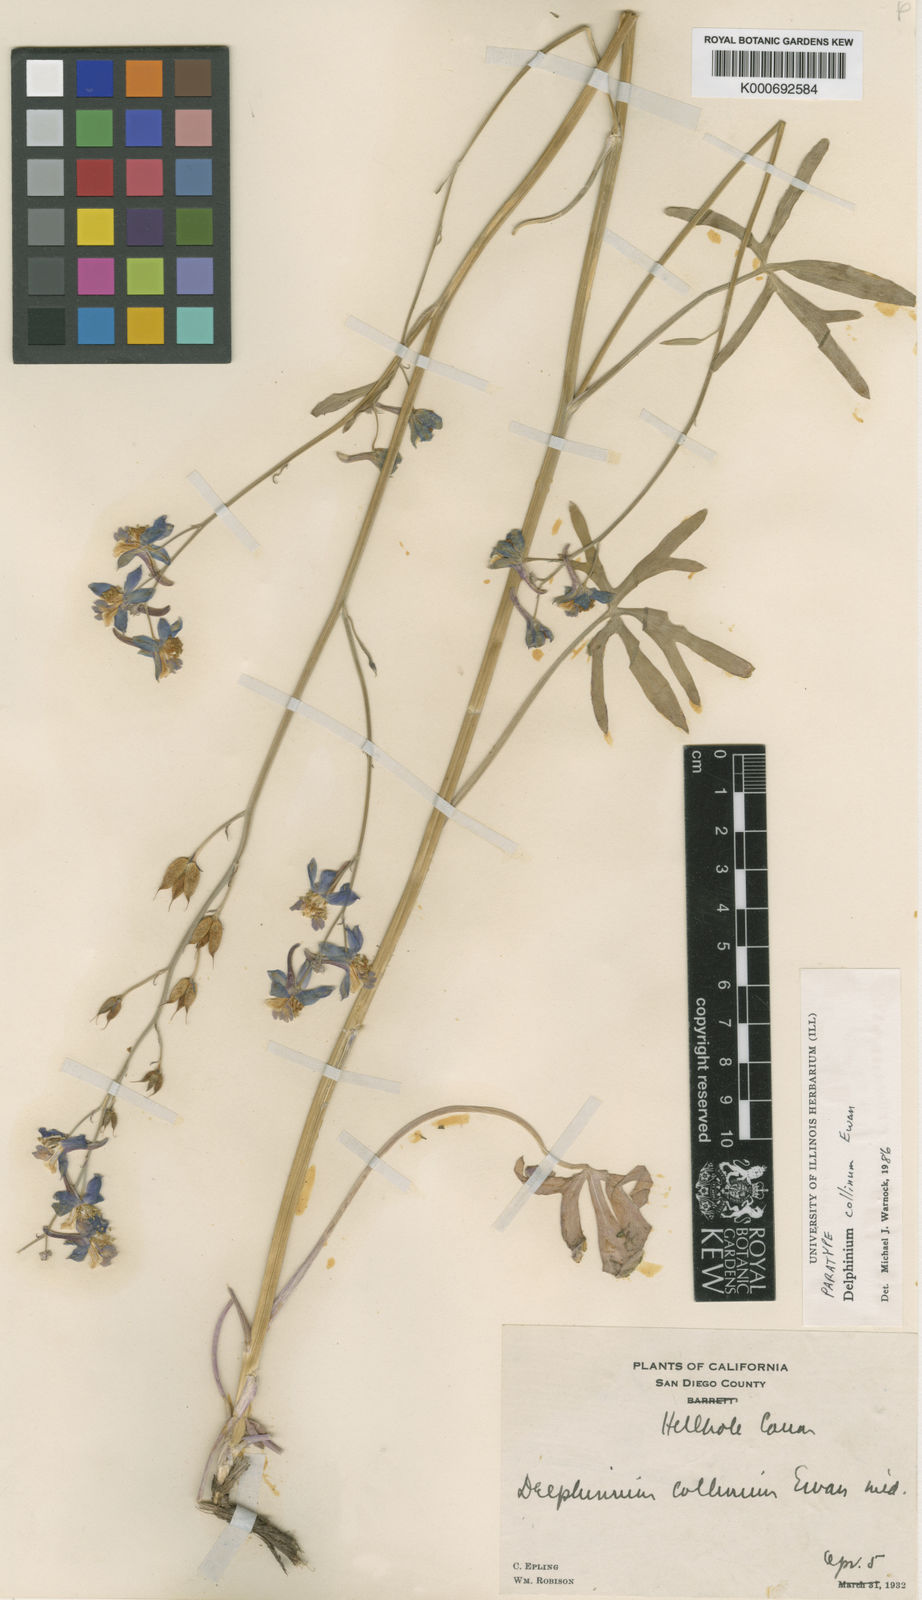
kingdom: Plantae
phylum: Tracheophyta
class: Magnoliopsida
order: Ranunculales
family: Ranunculaceae
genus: Delphinium
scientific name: Delphinium parishii
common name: Apache larkspur
